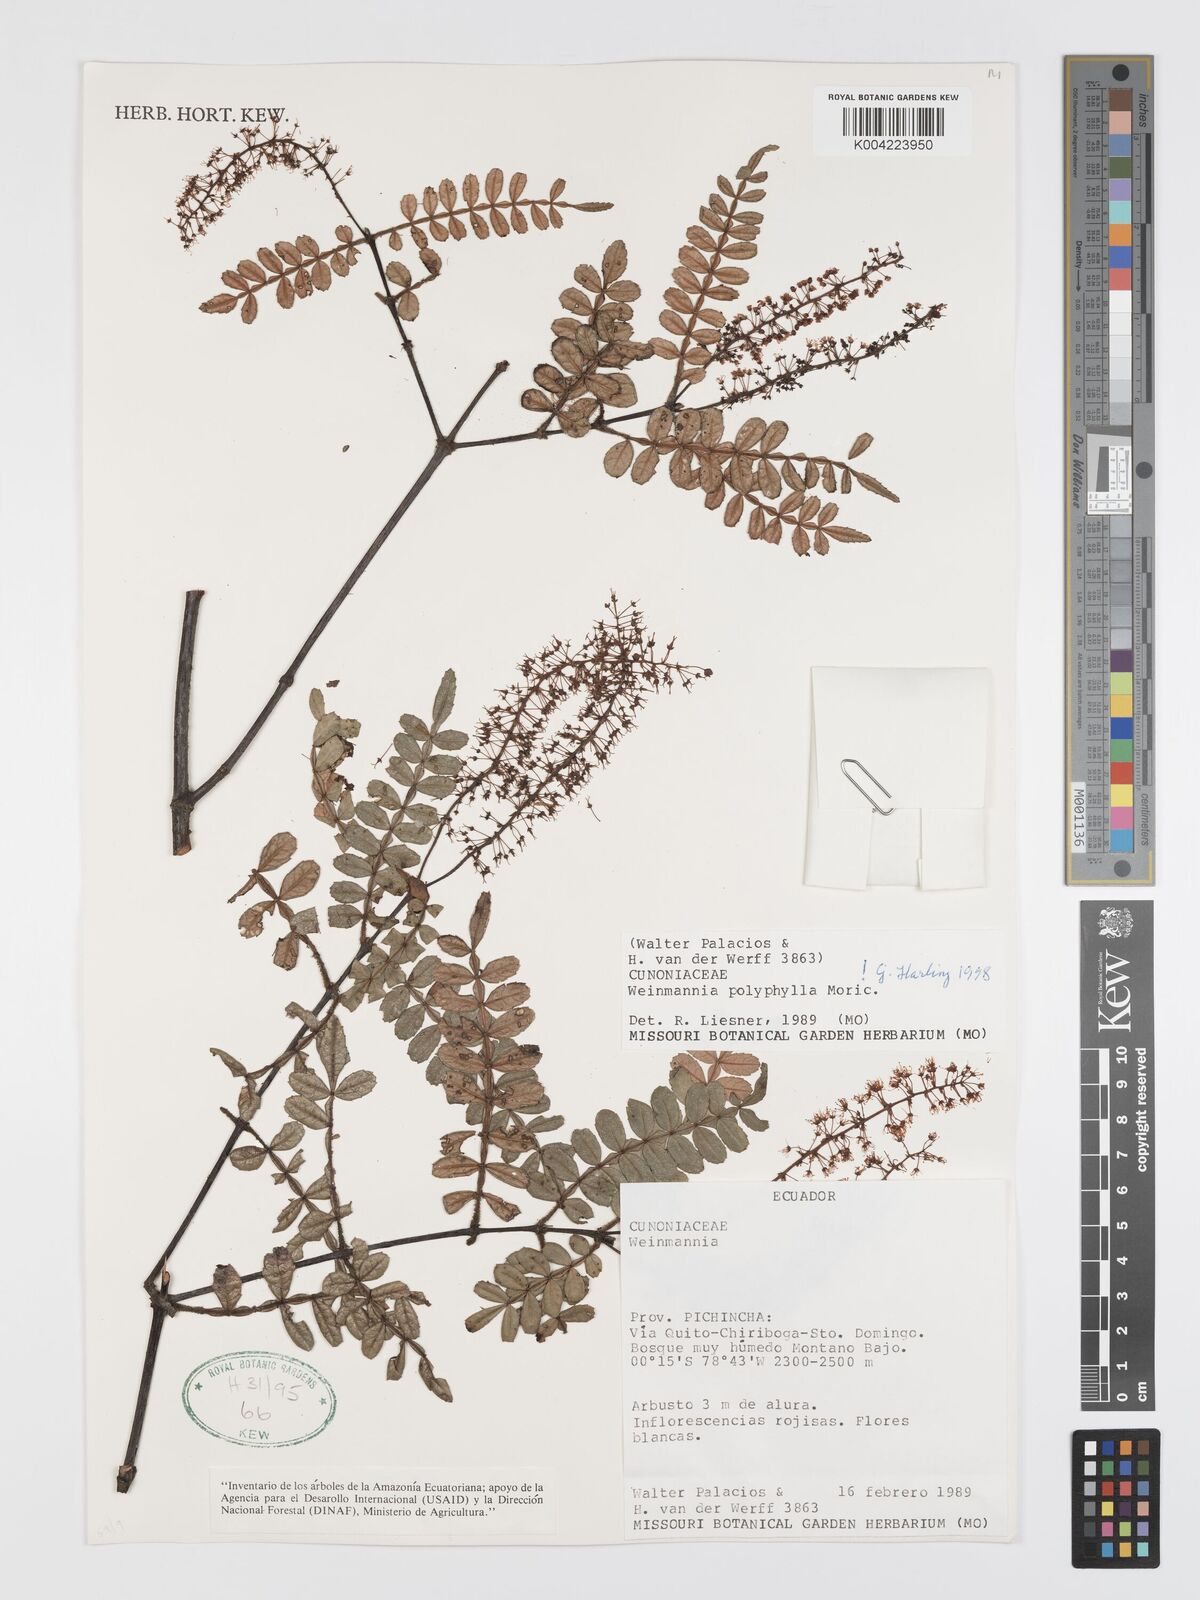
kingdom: Plantae
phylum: Tracheophyta
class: Magnoliopsida
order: Oxalidales
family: Cunoniaceae
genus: Weinmannia
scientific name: Weinmannia polyphylla
